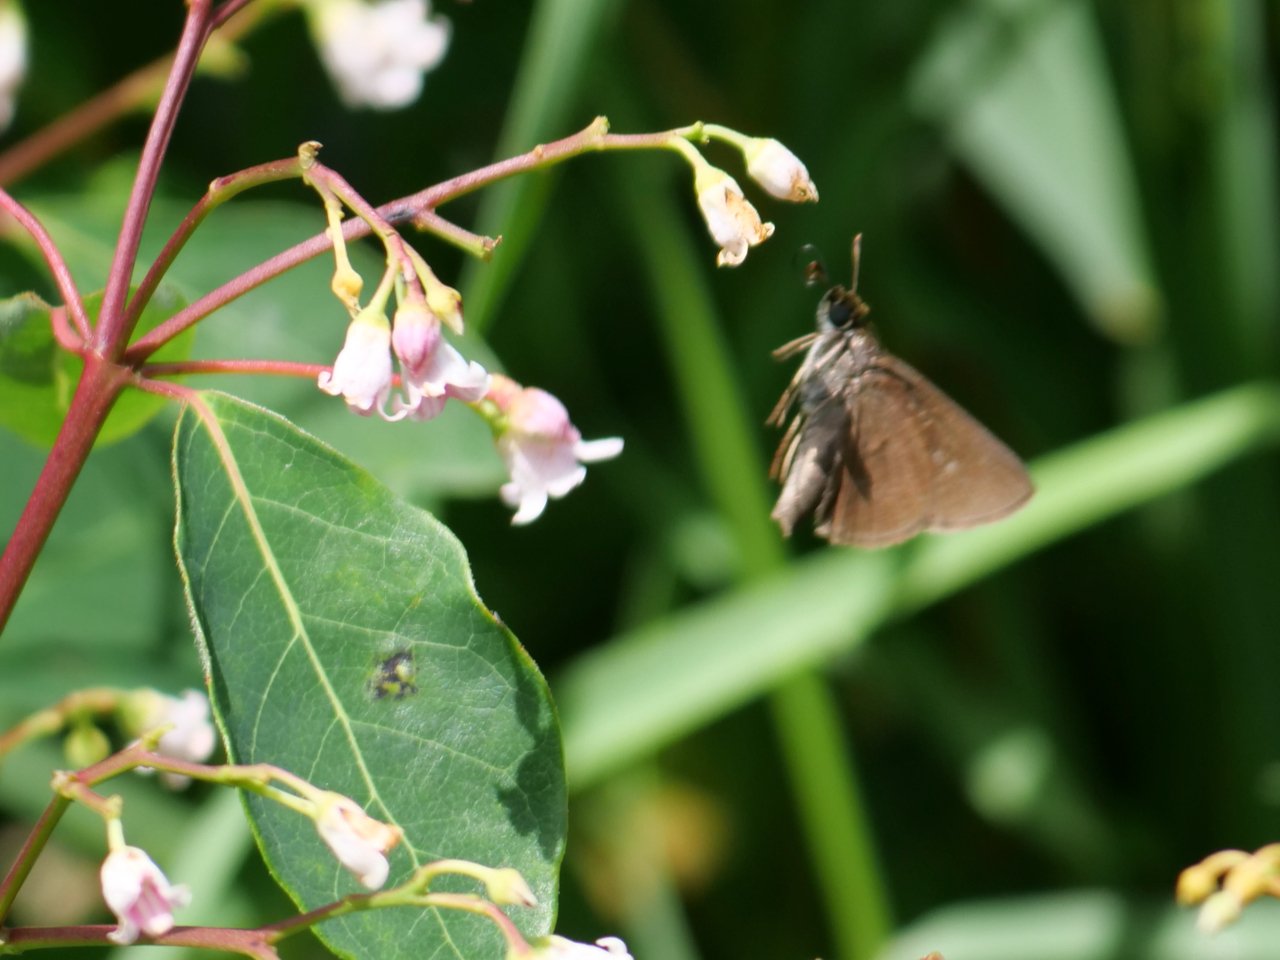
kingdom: Animalia
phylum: Arthropoda
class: Insecta
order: Lepidoptera
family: Hesperiidae
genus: Euphyes
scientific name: Euphyes vestris
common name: Dun Skipper
